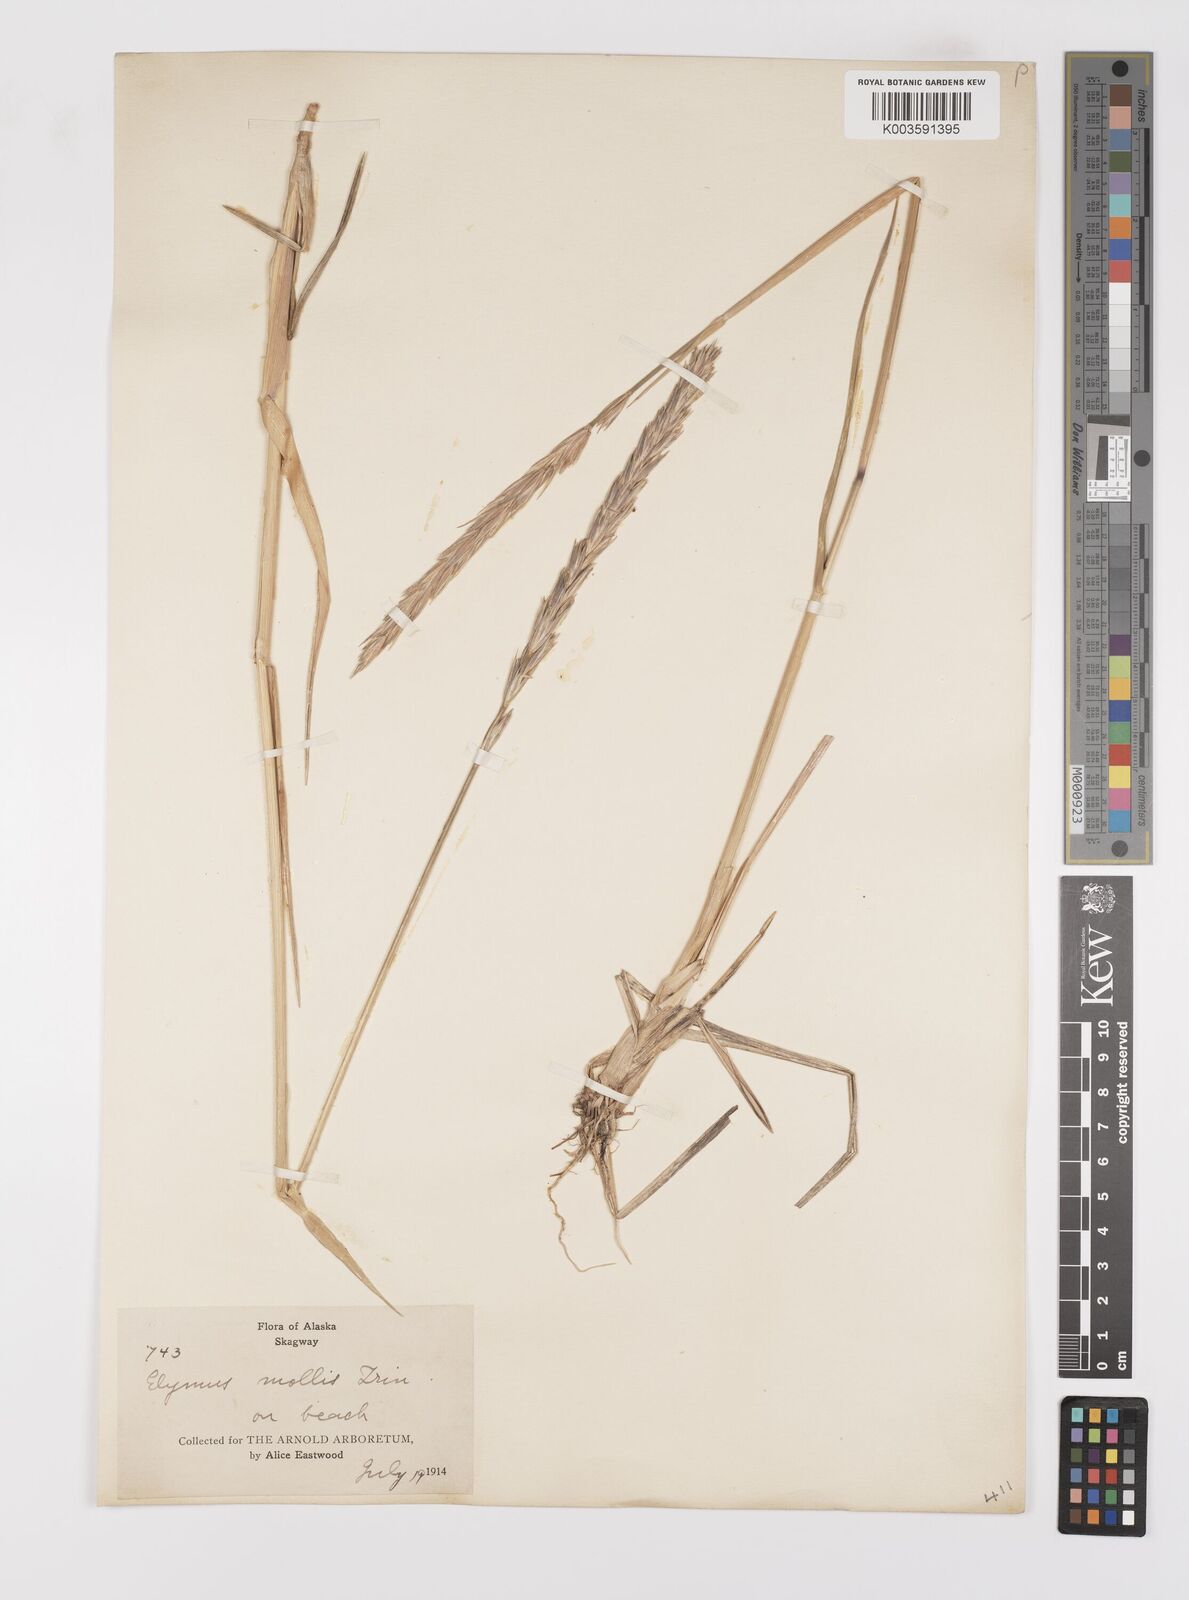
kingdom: Plantae
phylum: Tracheophyta
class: Liliopsida
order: Poales
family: Poaceae
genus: Leymus
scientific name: Leymus mollis
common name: American dune grass
